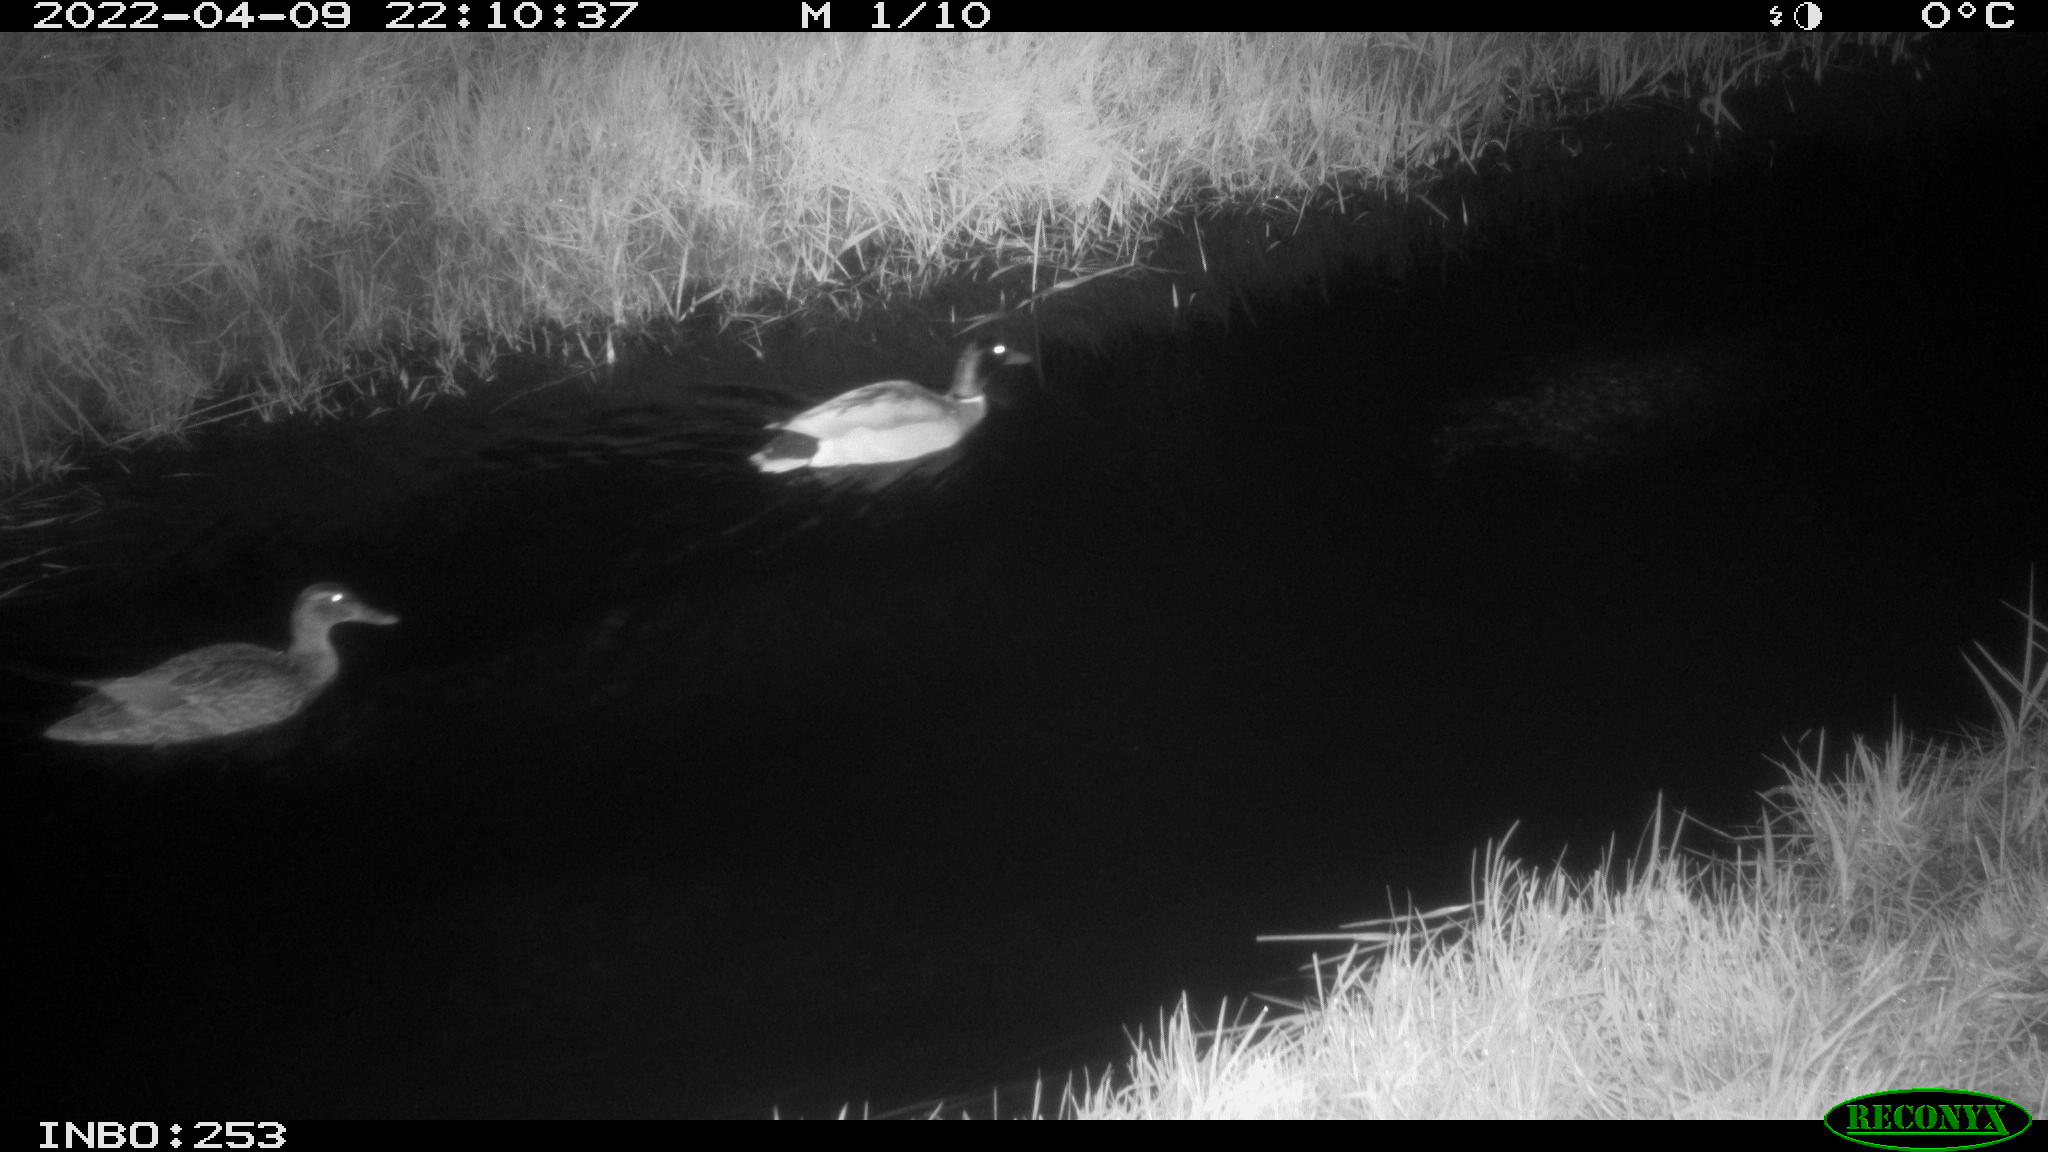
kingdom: Animalia
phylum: Chordata
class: Aves
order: Anseriformes
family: Anatidae
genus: Anas
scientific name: Anas platyrhynchos
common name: Mallard
